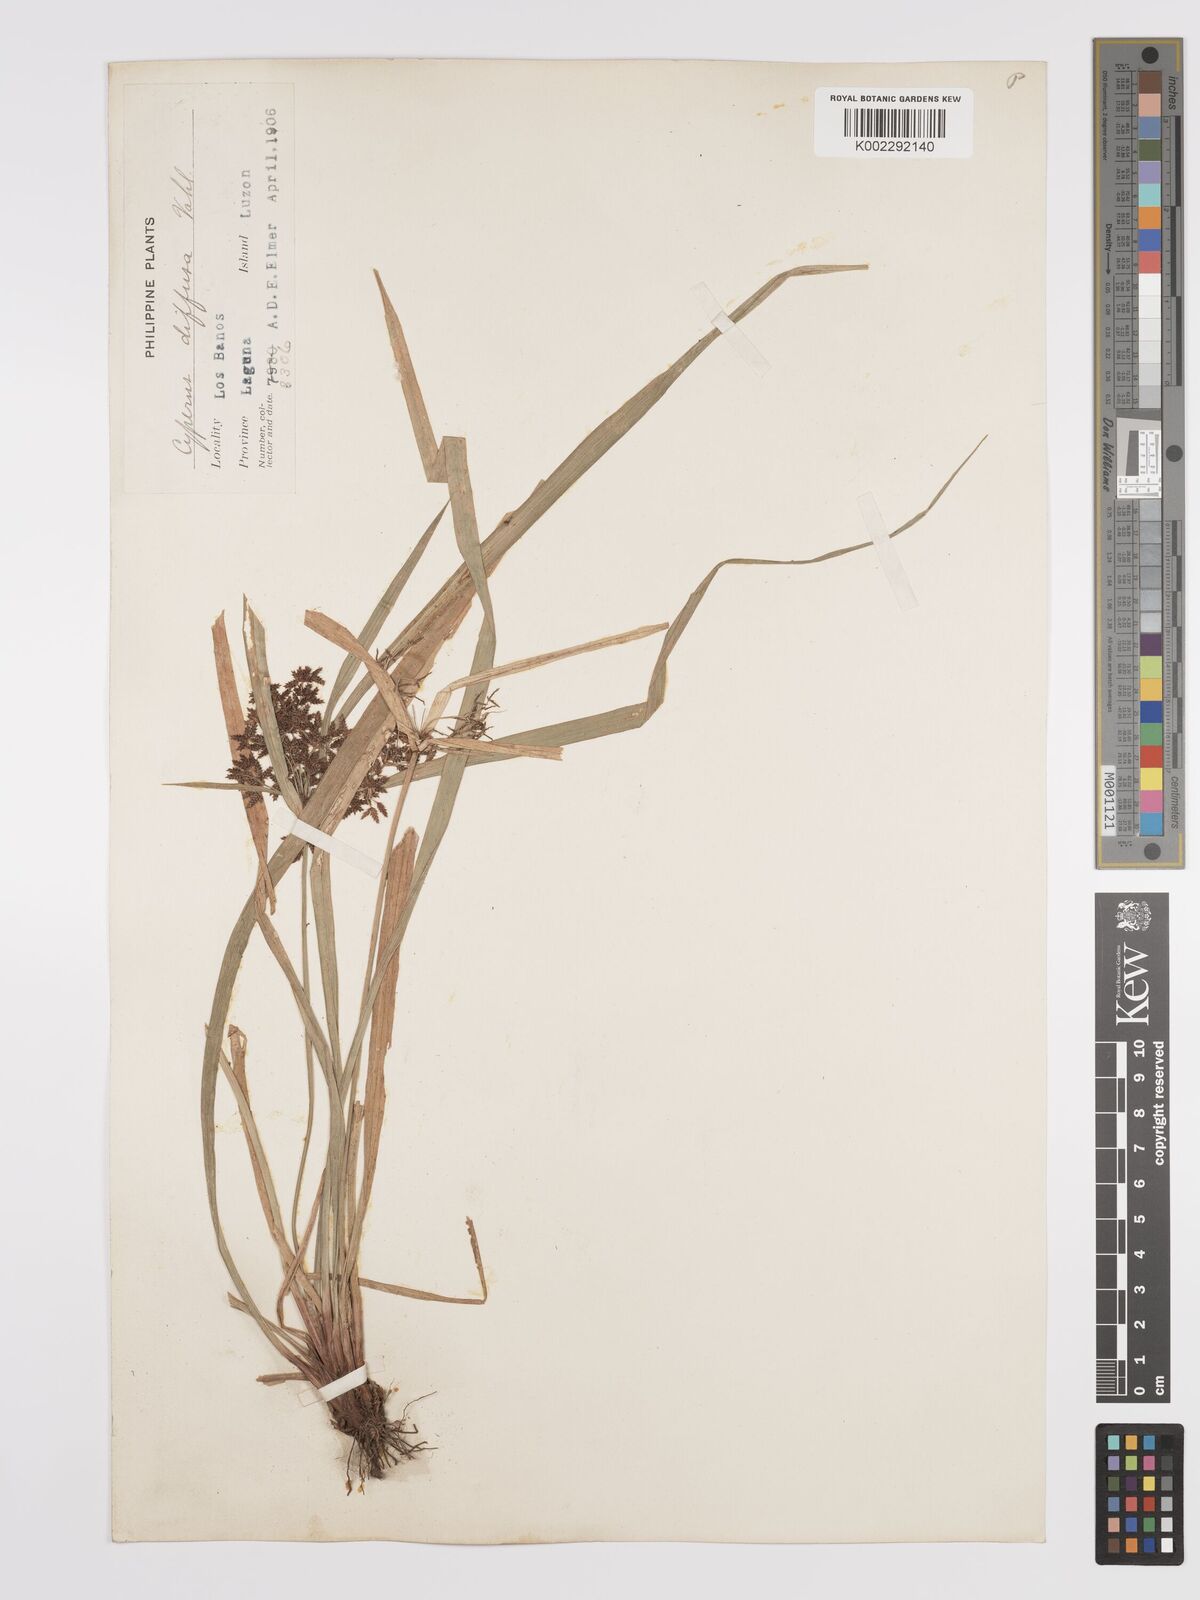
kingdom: Plantae
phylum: Tracheophyta
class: Liliopsida
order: Poales
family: Cyperaceae
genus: Cyperus
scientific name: Cyperus diffusus
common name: Dwarf umbrella grass
